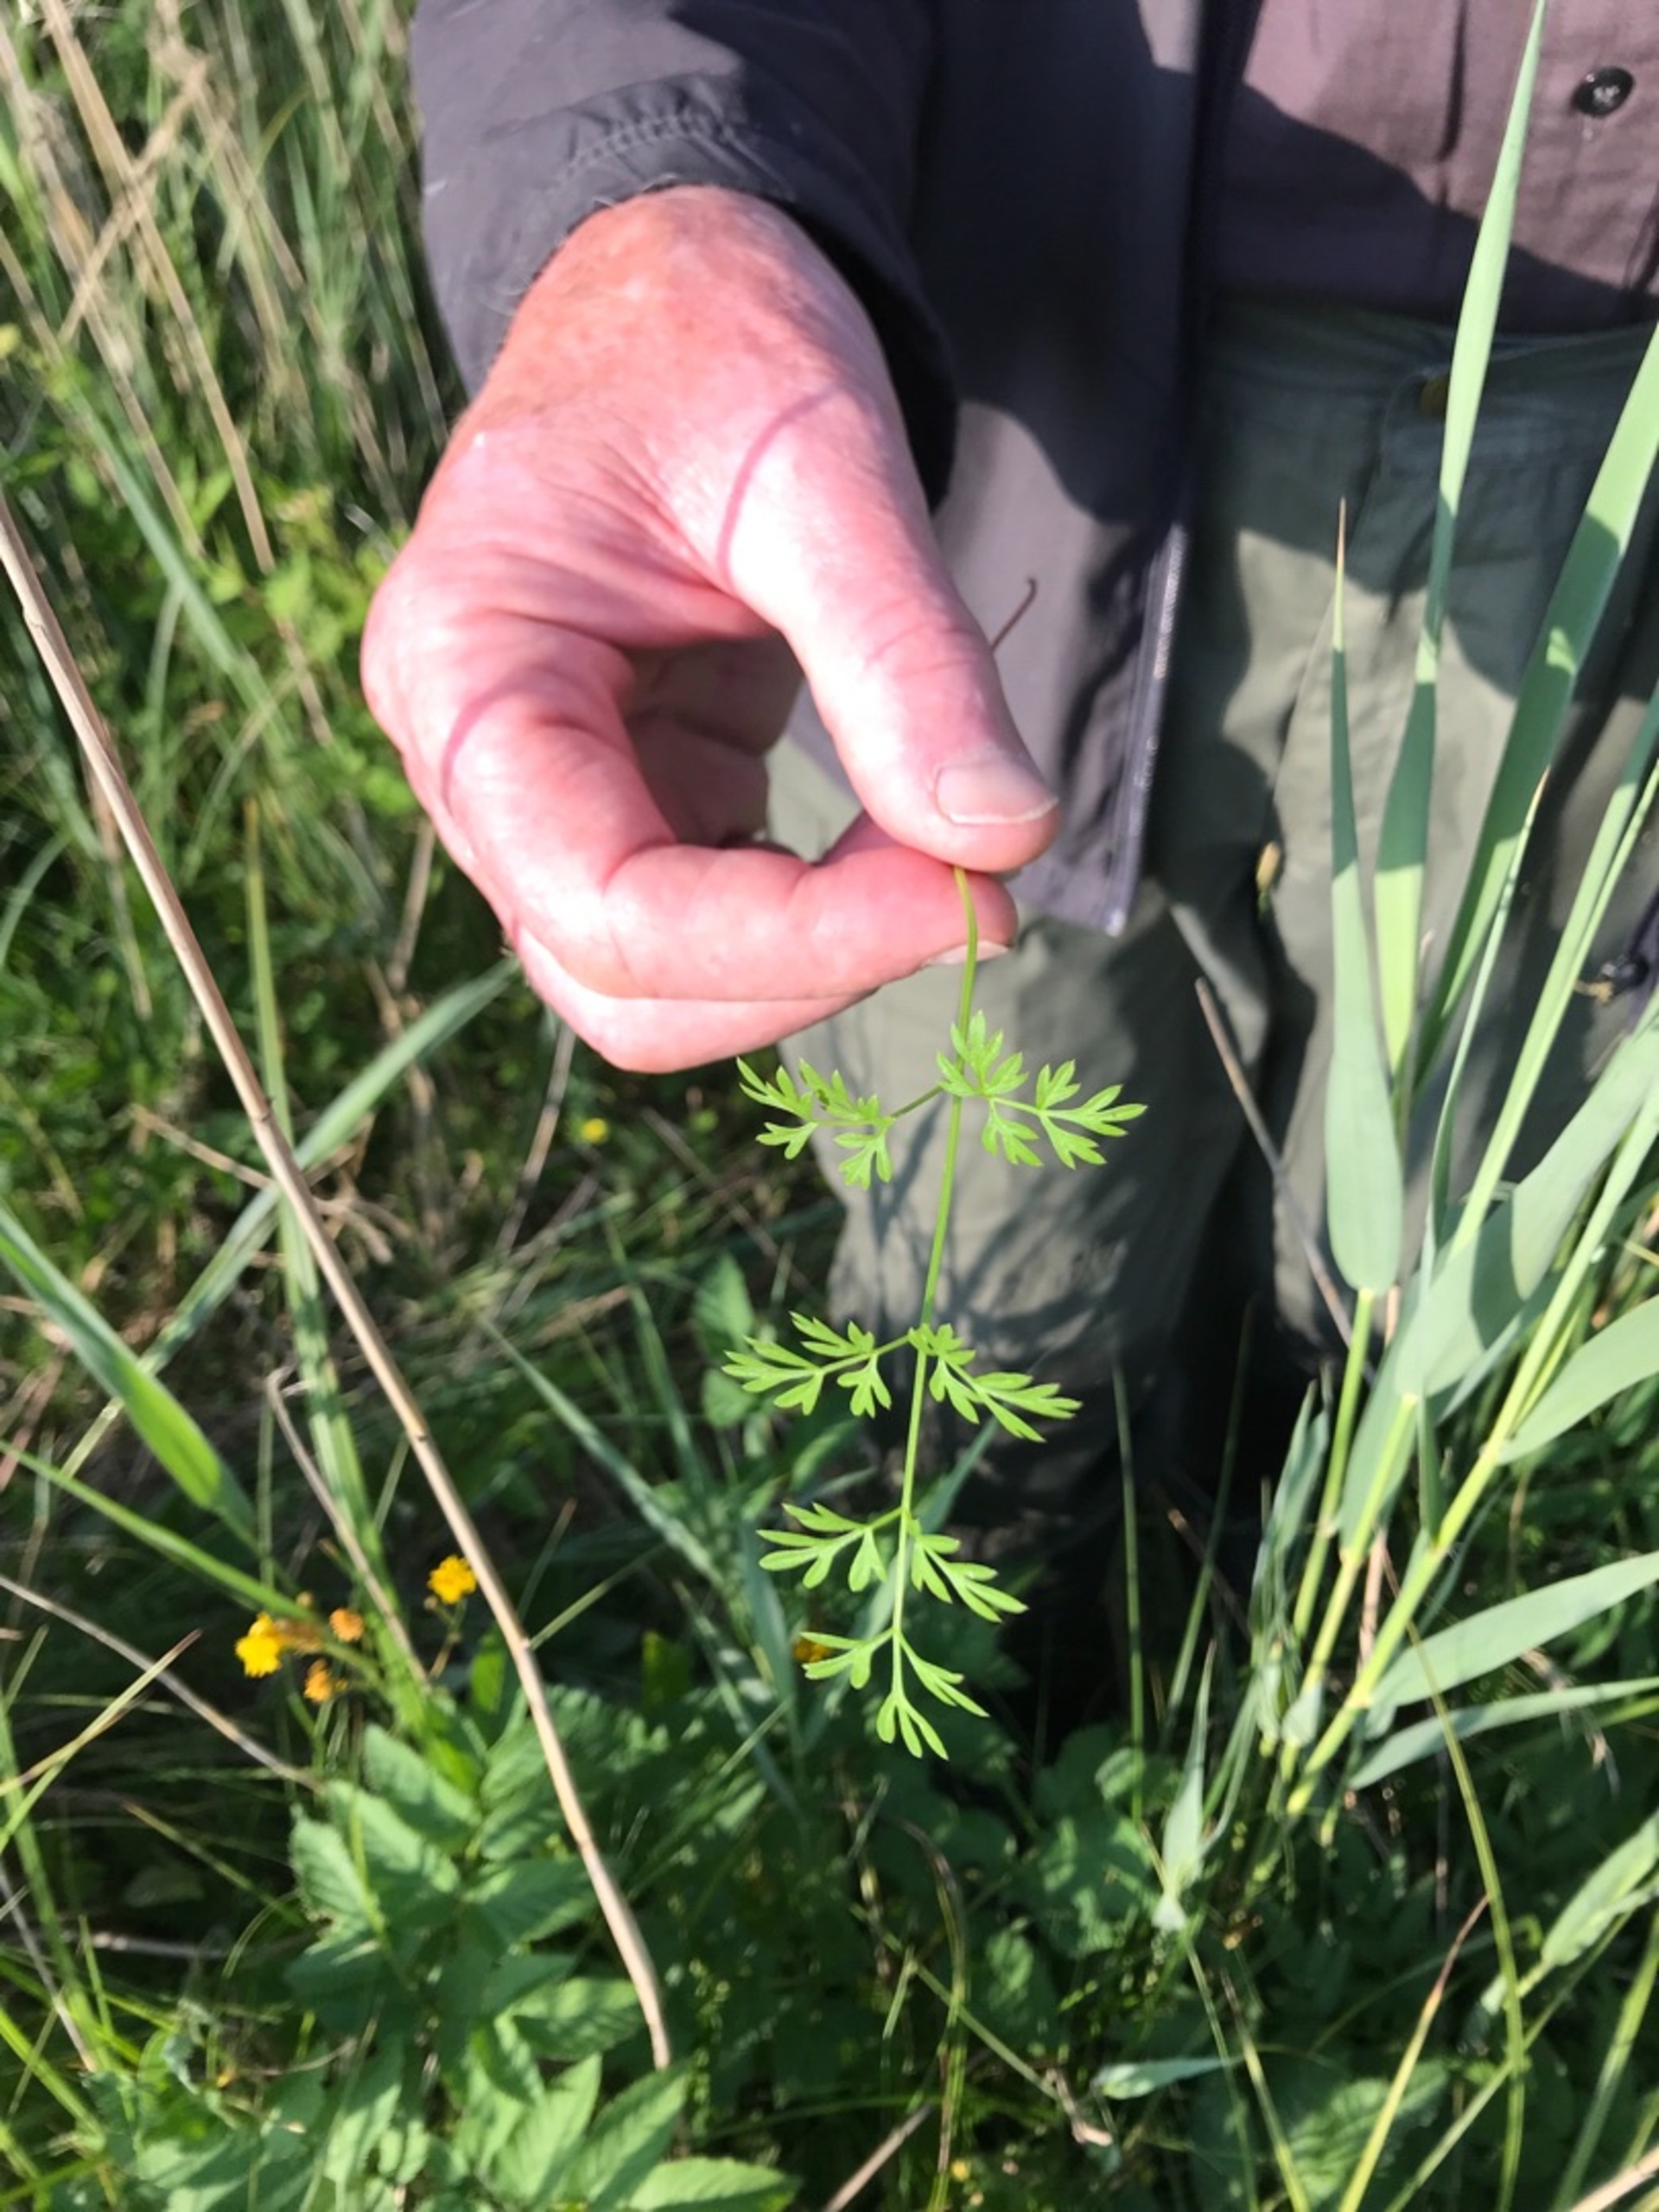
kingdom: Plantae
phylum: Tracheophyta
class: Magnoliopsida
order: Apiales
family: Apiaceae
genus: Selinum
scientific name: Selinum carvifolia
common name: Seline
